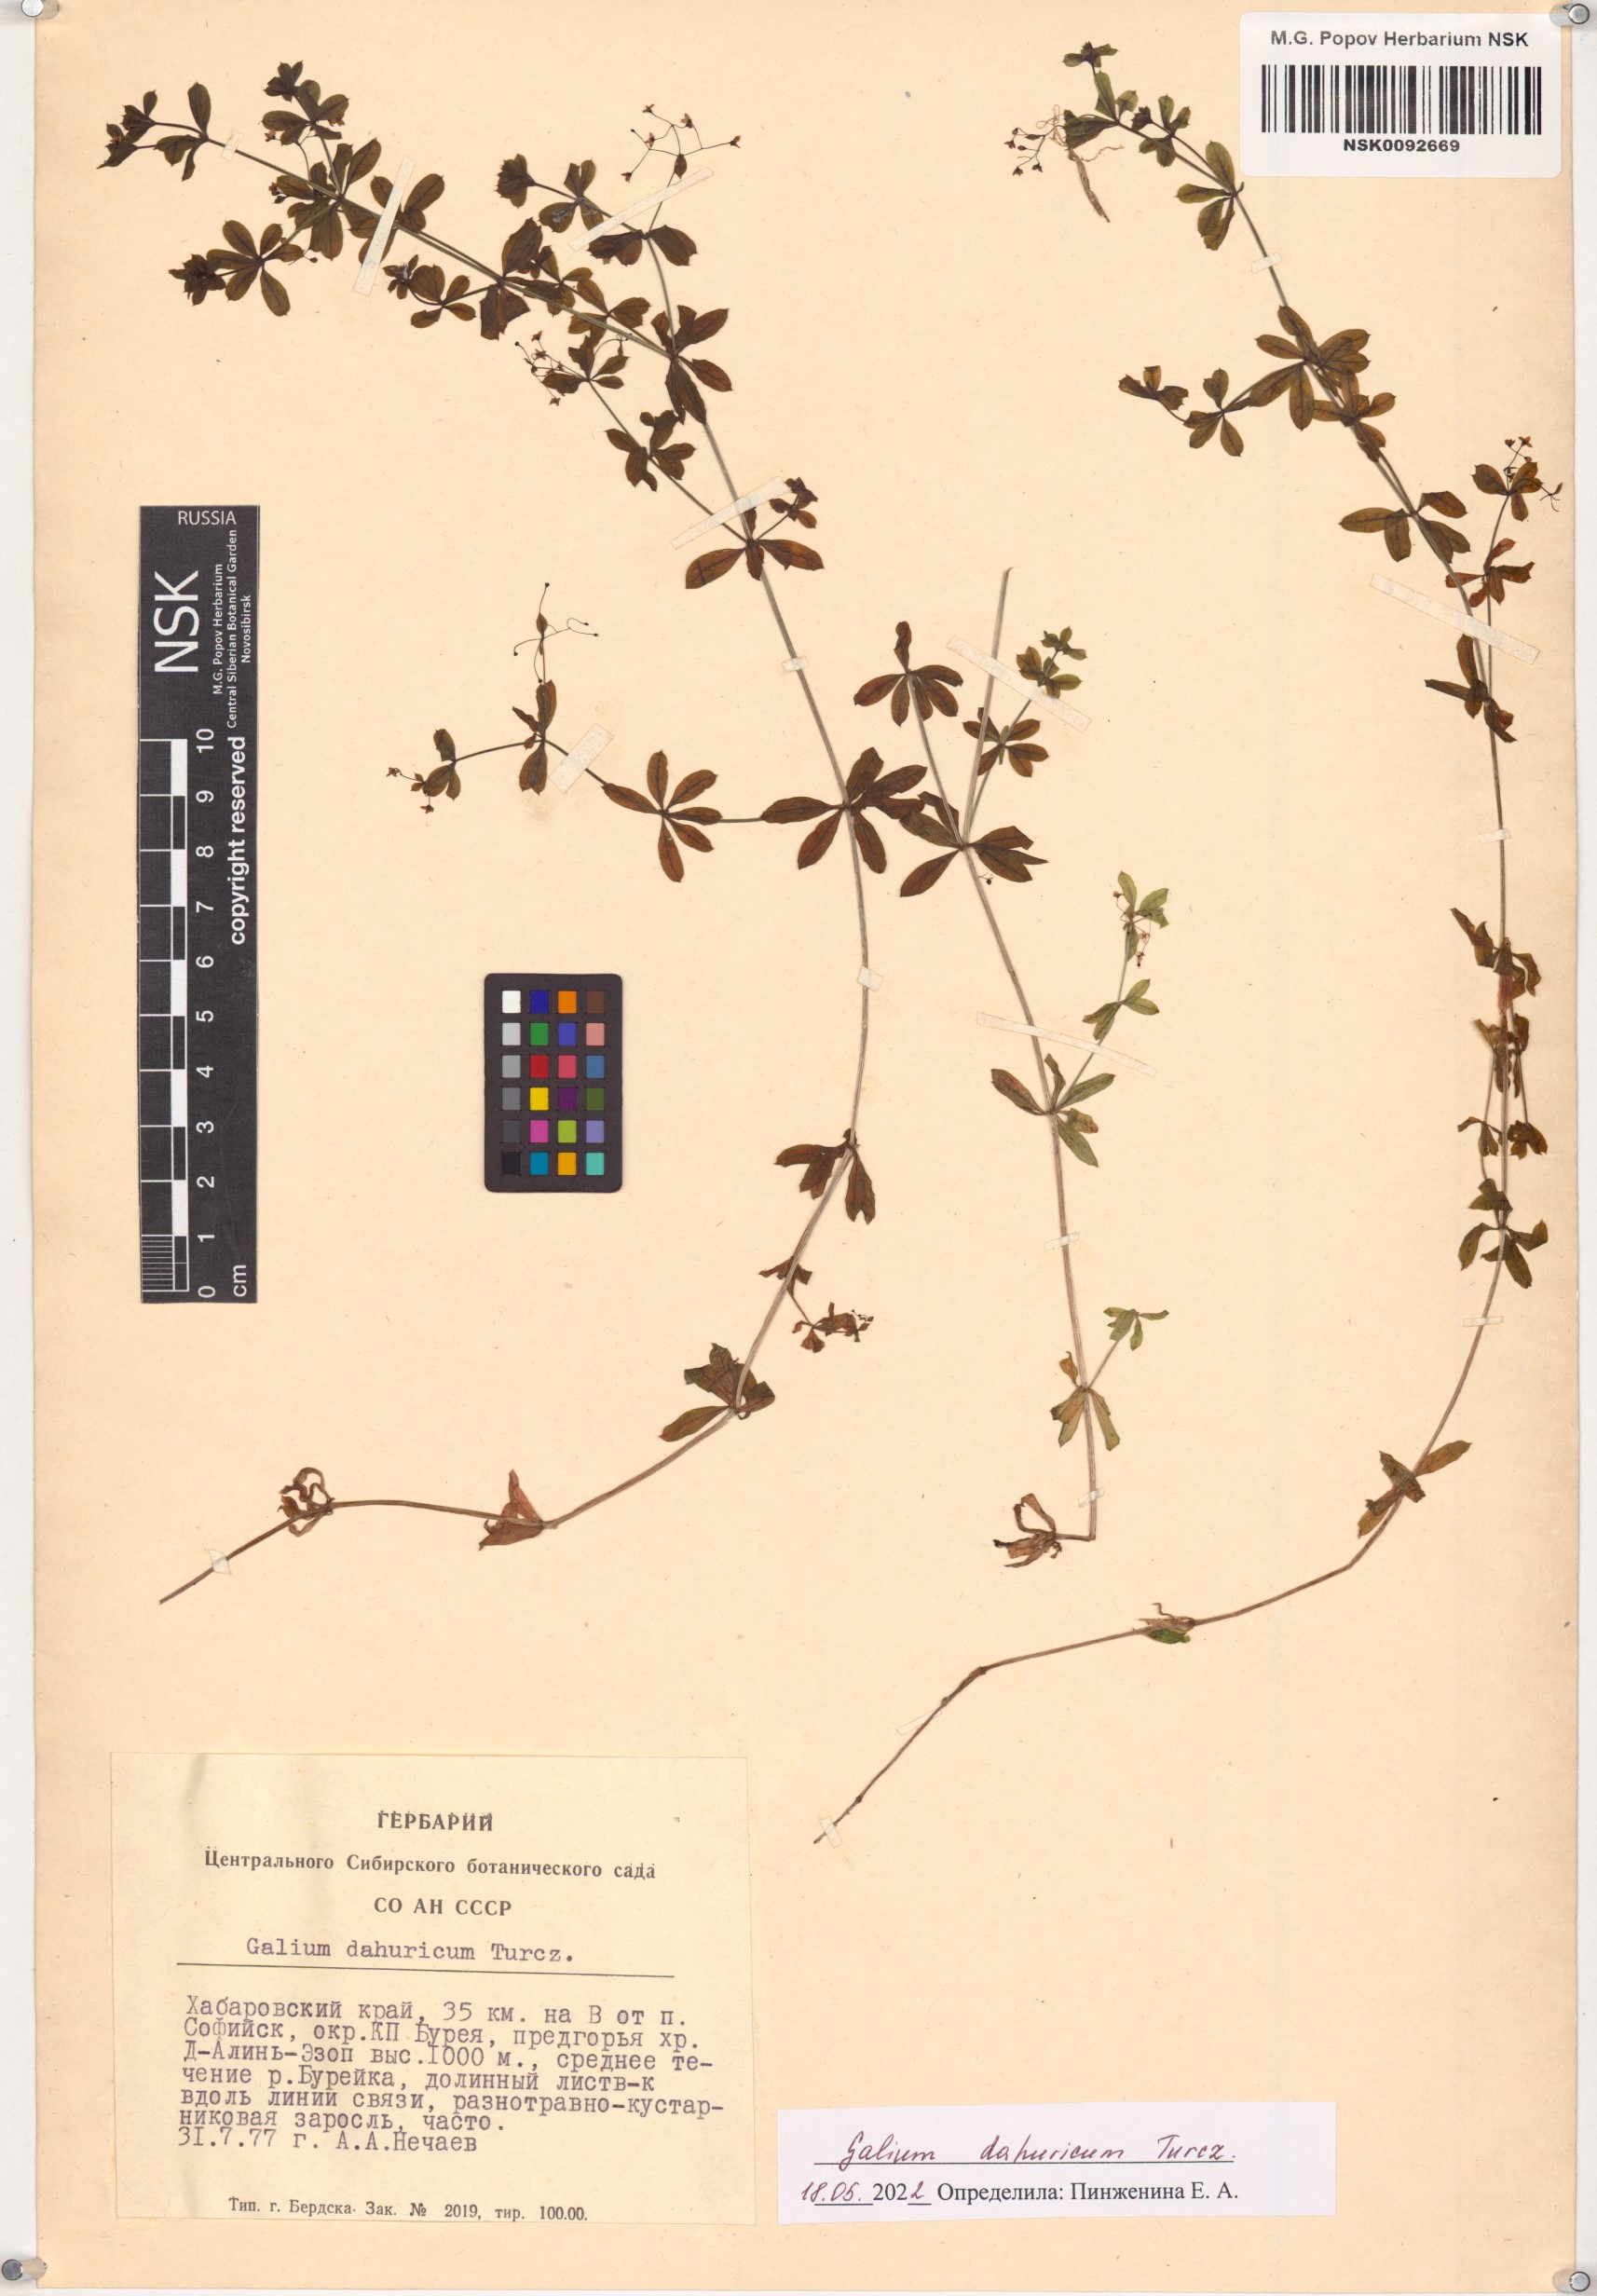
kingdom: Plantae
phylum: Tracheophyta
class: Magnoliopsida
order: Gentianales
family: Rubiaceae
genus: Galium
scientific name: Galium dahuricum
